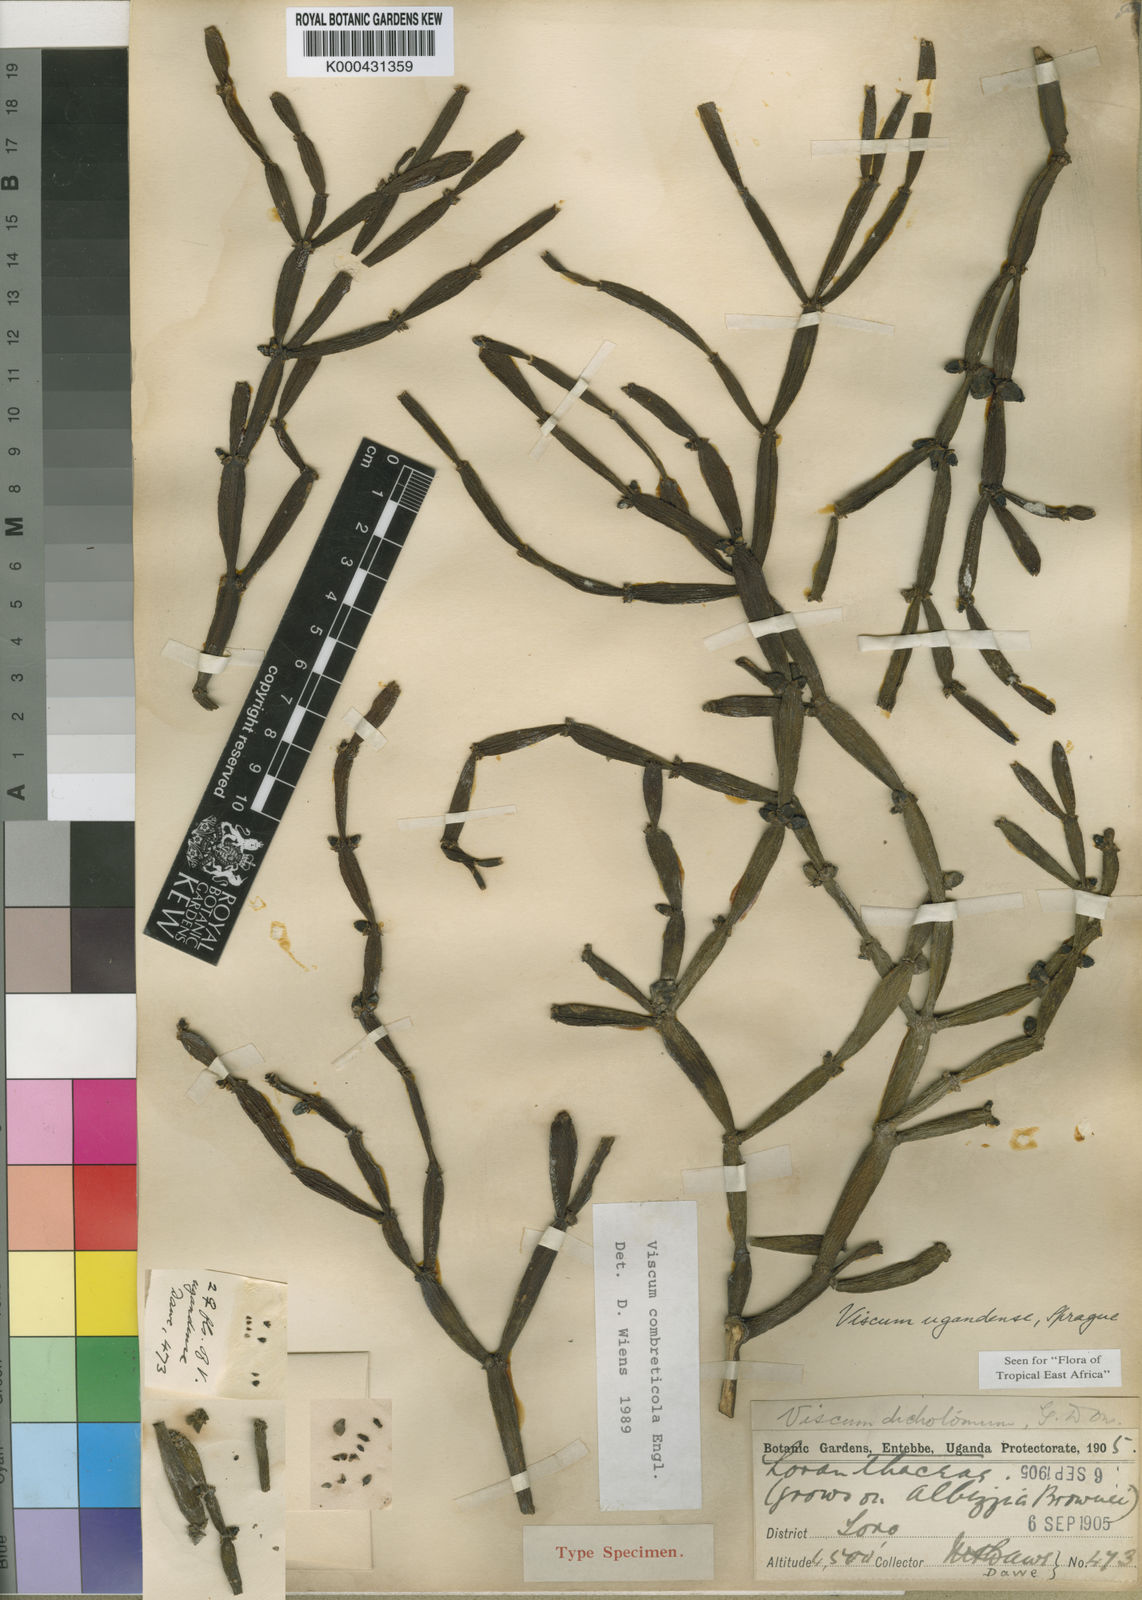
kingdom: Plantae
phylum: Tracheophyta
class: Magnoliopsida
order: Santalales
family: Viscaceae
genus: Viscum
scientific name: Viscum combreticola
